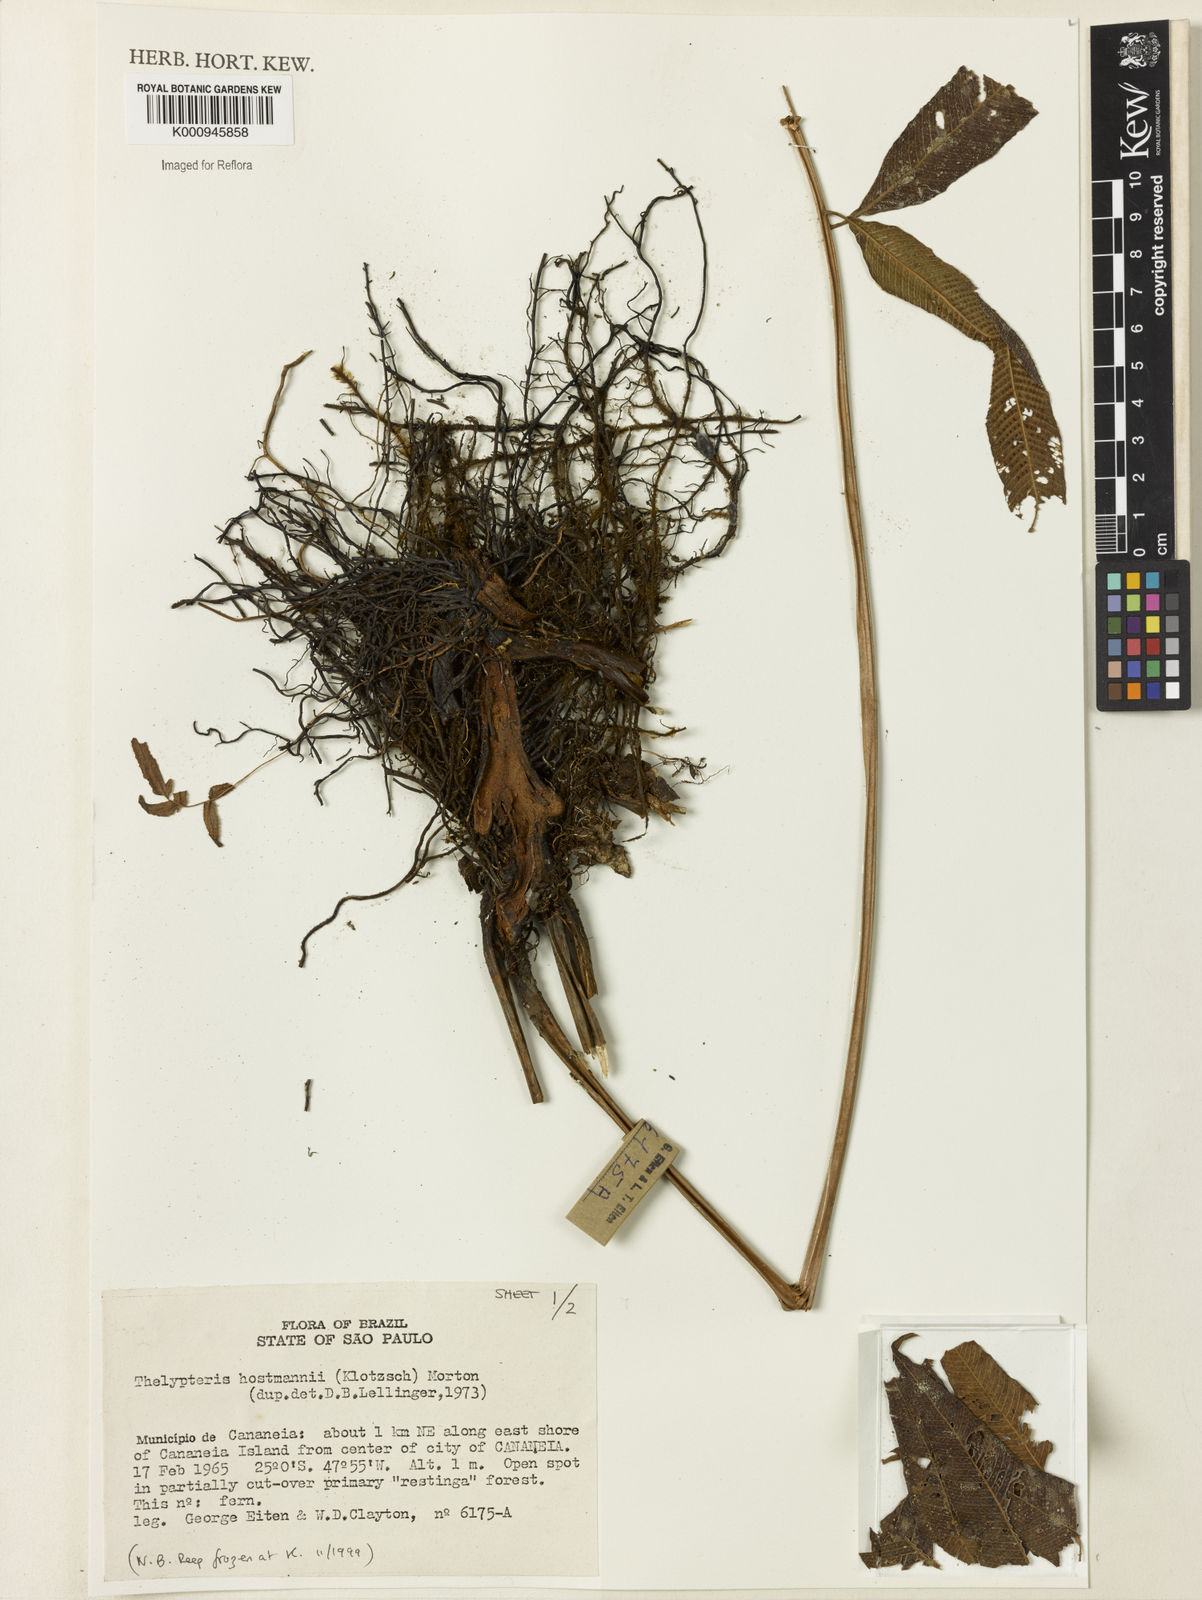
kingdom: Plantae
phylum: Tracheophyta
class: Polypodiopsida
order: Polypodiales
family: Thelypteridaceae
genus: Meniscium
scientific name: Meniscium hostmannii
